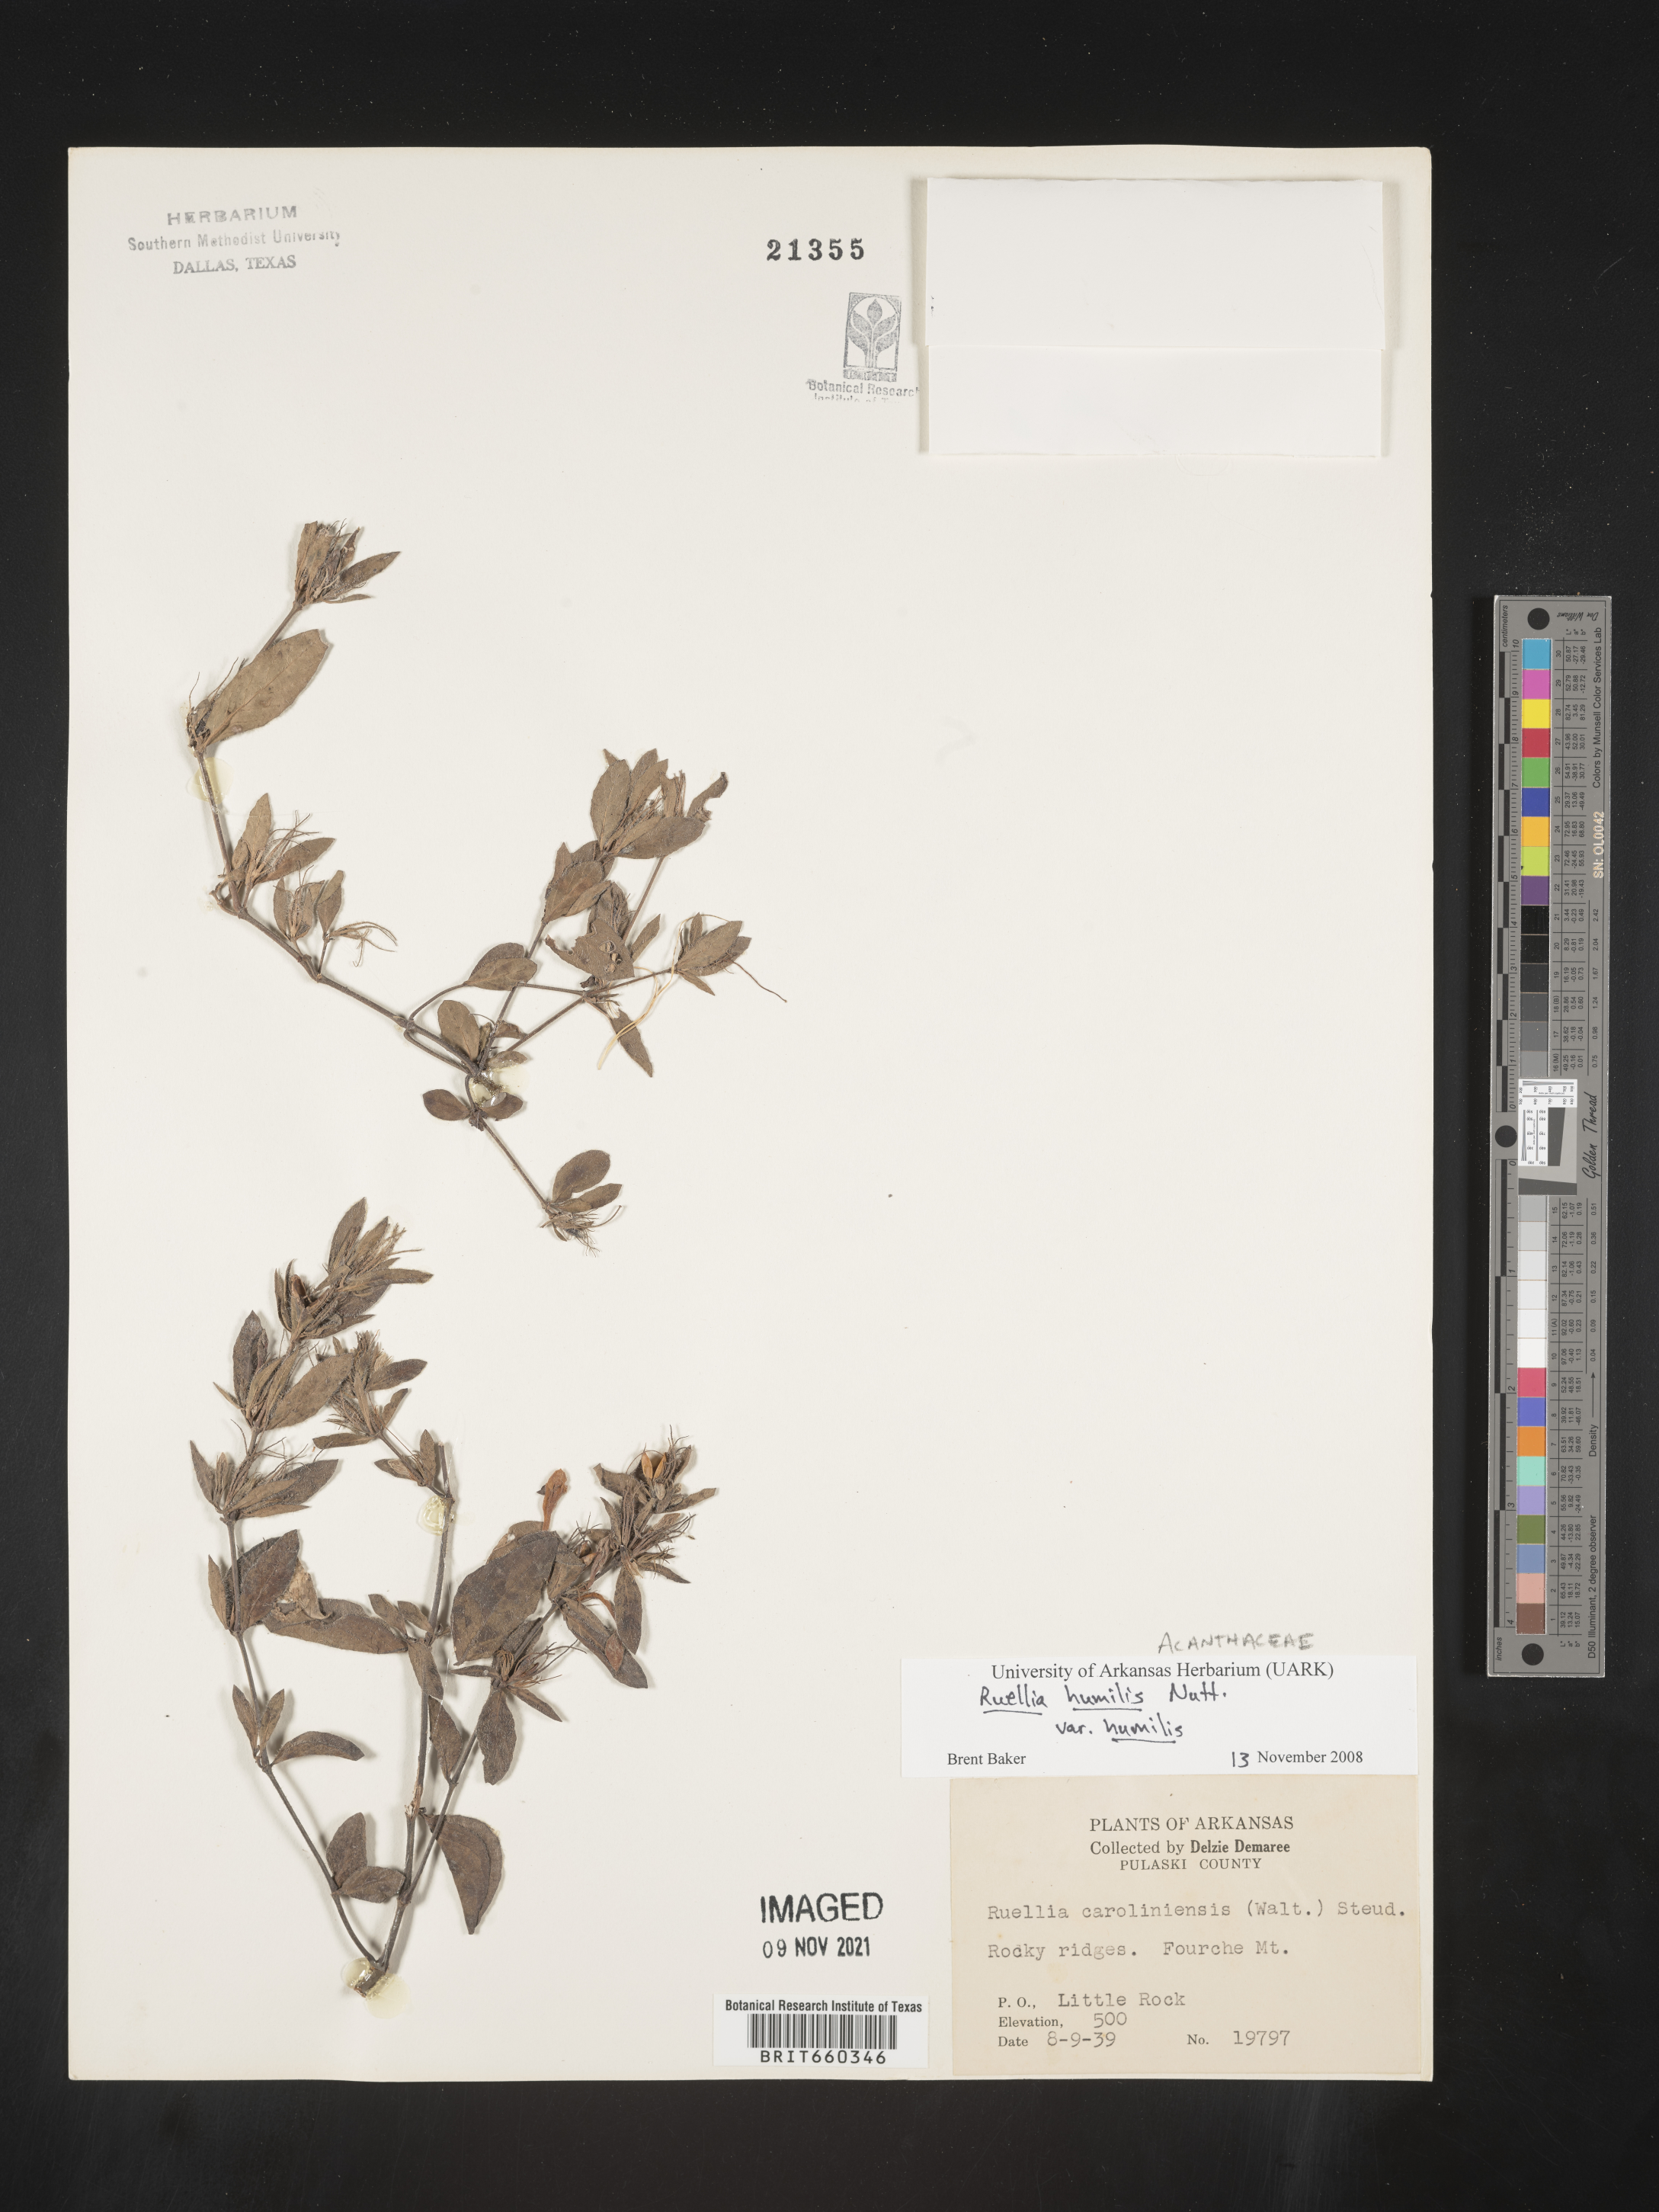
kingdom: Plantae
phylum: Tracheophyta
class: Magnoliopsida
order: Lamiales
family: Acanthaceae
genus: Ruellia
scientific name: Ruellia humilis
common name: Fringe-leaf ruellia
